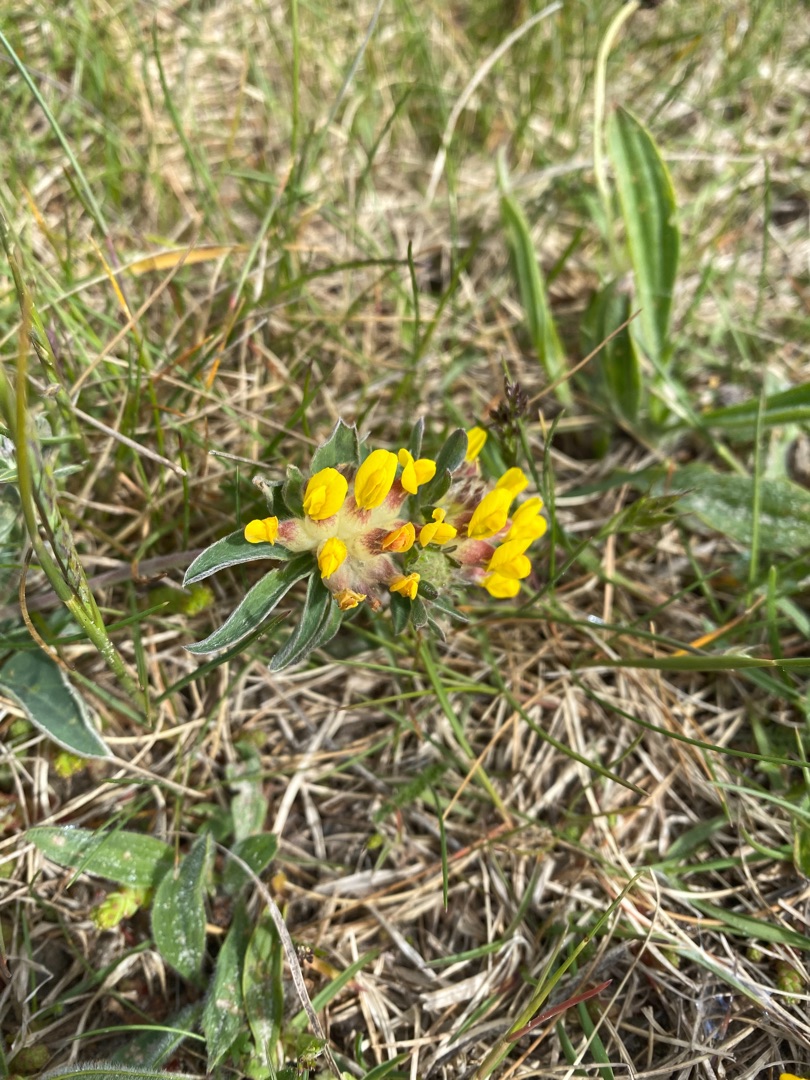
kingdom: Plantae
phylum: Tracheophyta
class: Magnoliopsida
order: Fabales
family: Fabaceae
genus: Anthyllis
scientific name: Anthyllis vulneraria
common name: Rundbælg
